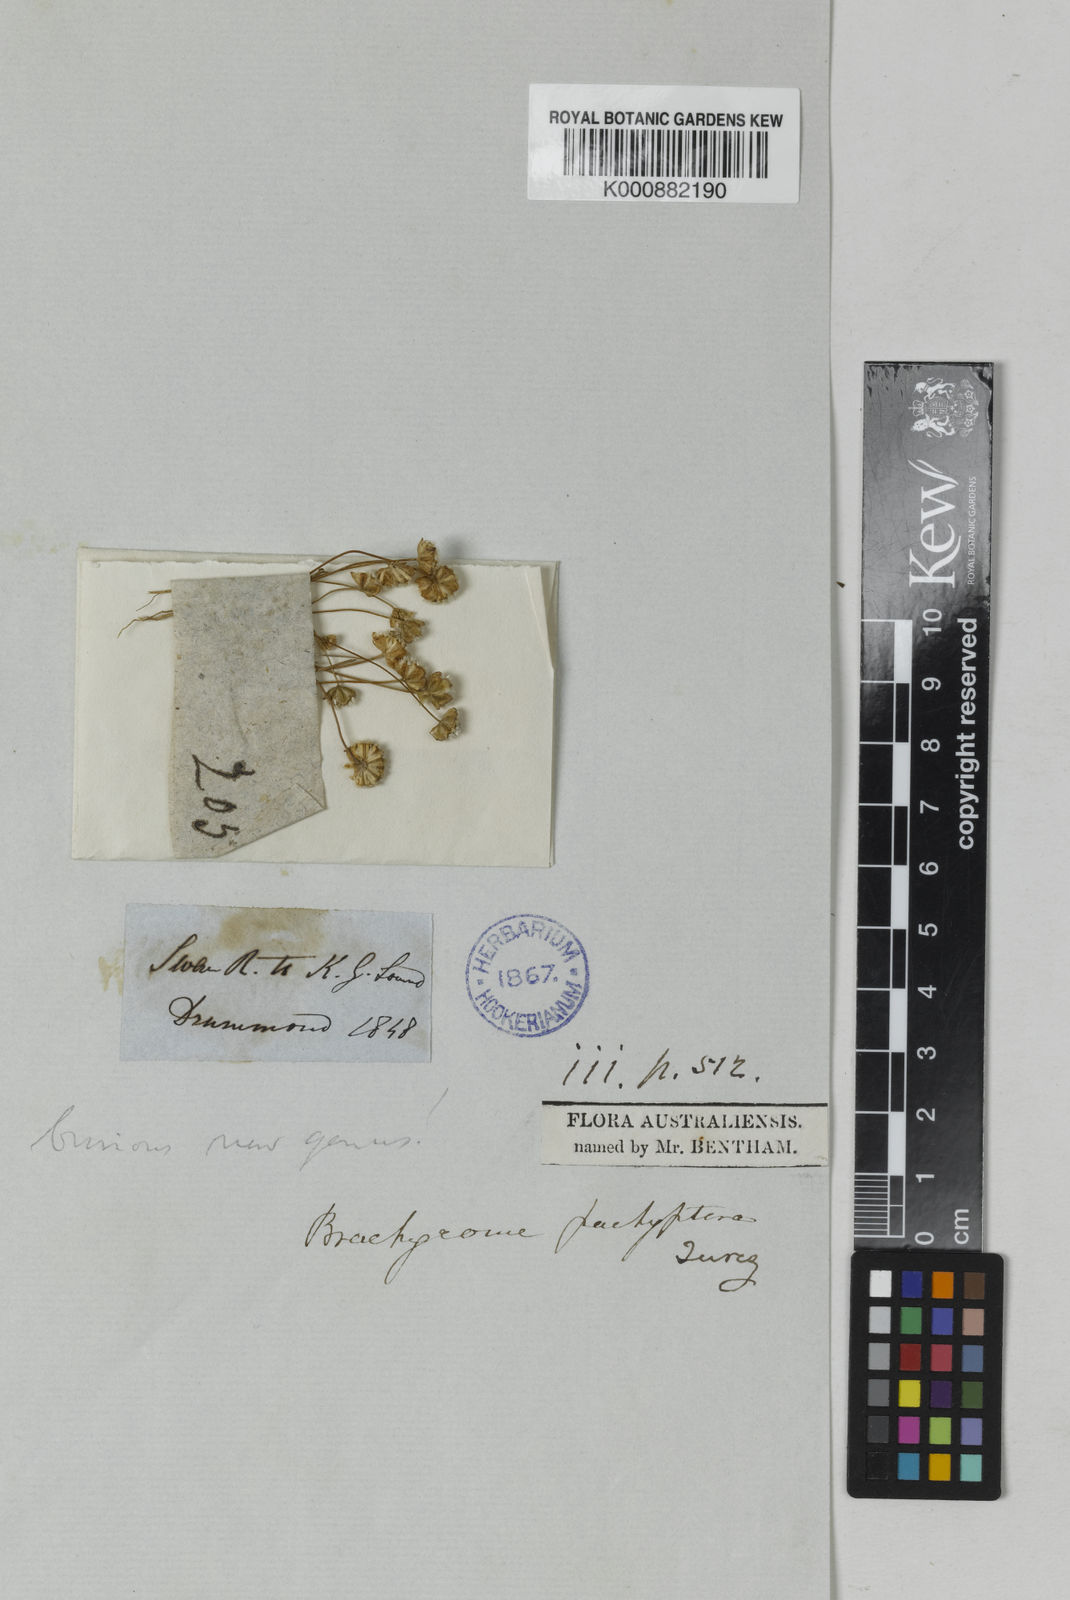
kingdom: Plantae
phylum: Tracheophyta
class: Magnoliopsida
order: Asterales
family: Asteraceae
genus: Brachyscome
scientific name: Brachyscome lineariloba
